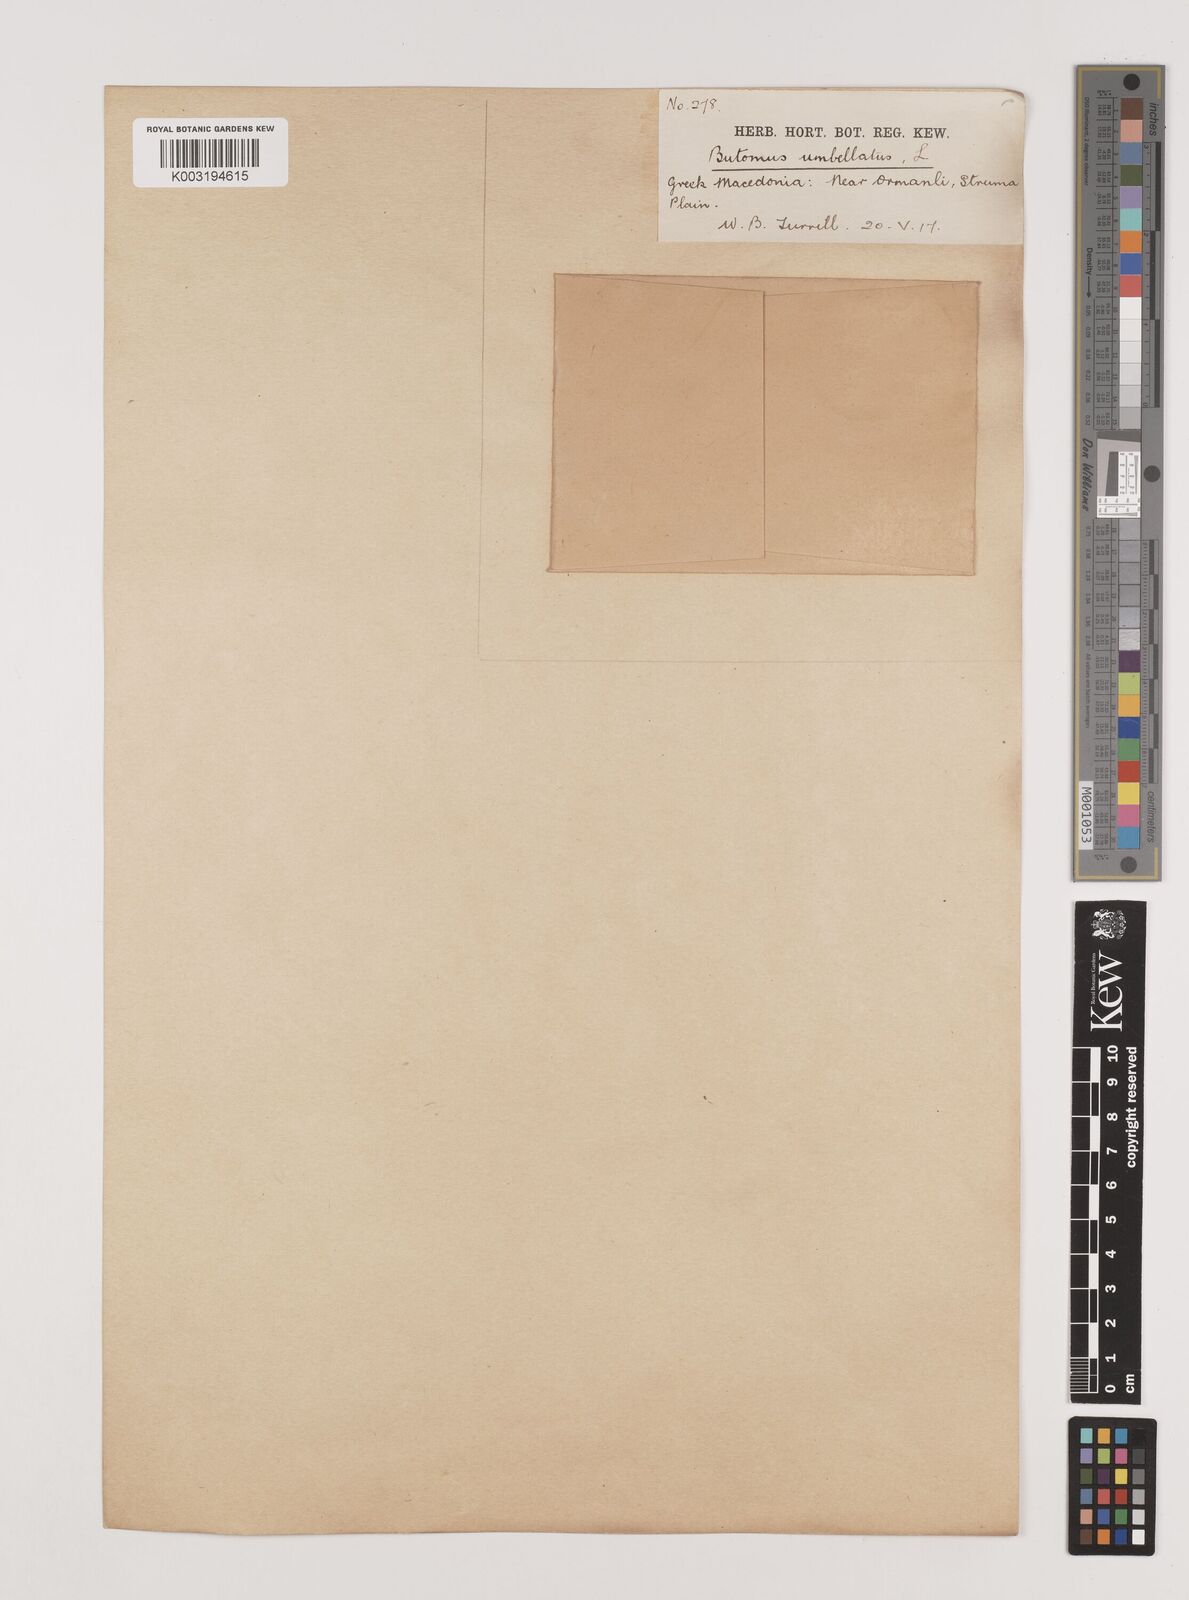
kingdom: Plantae
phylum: Tracheophyta
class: Liliopsida
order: Alismatales
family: Butomaceae
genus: Butomus
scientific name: Butomus umbellatus
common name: Flowering-rush
